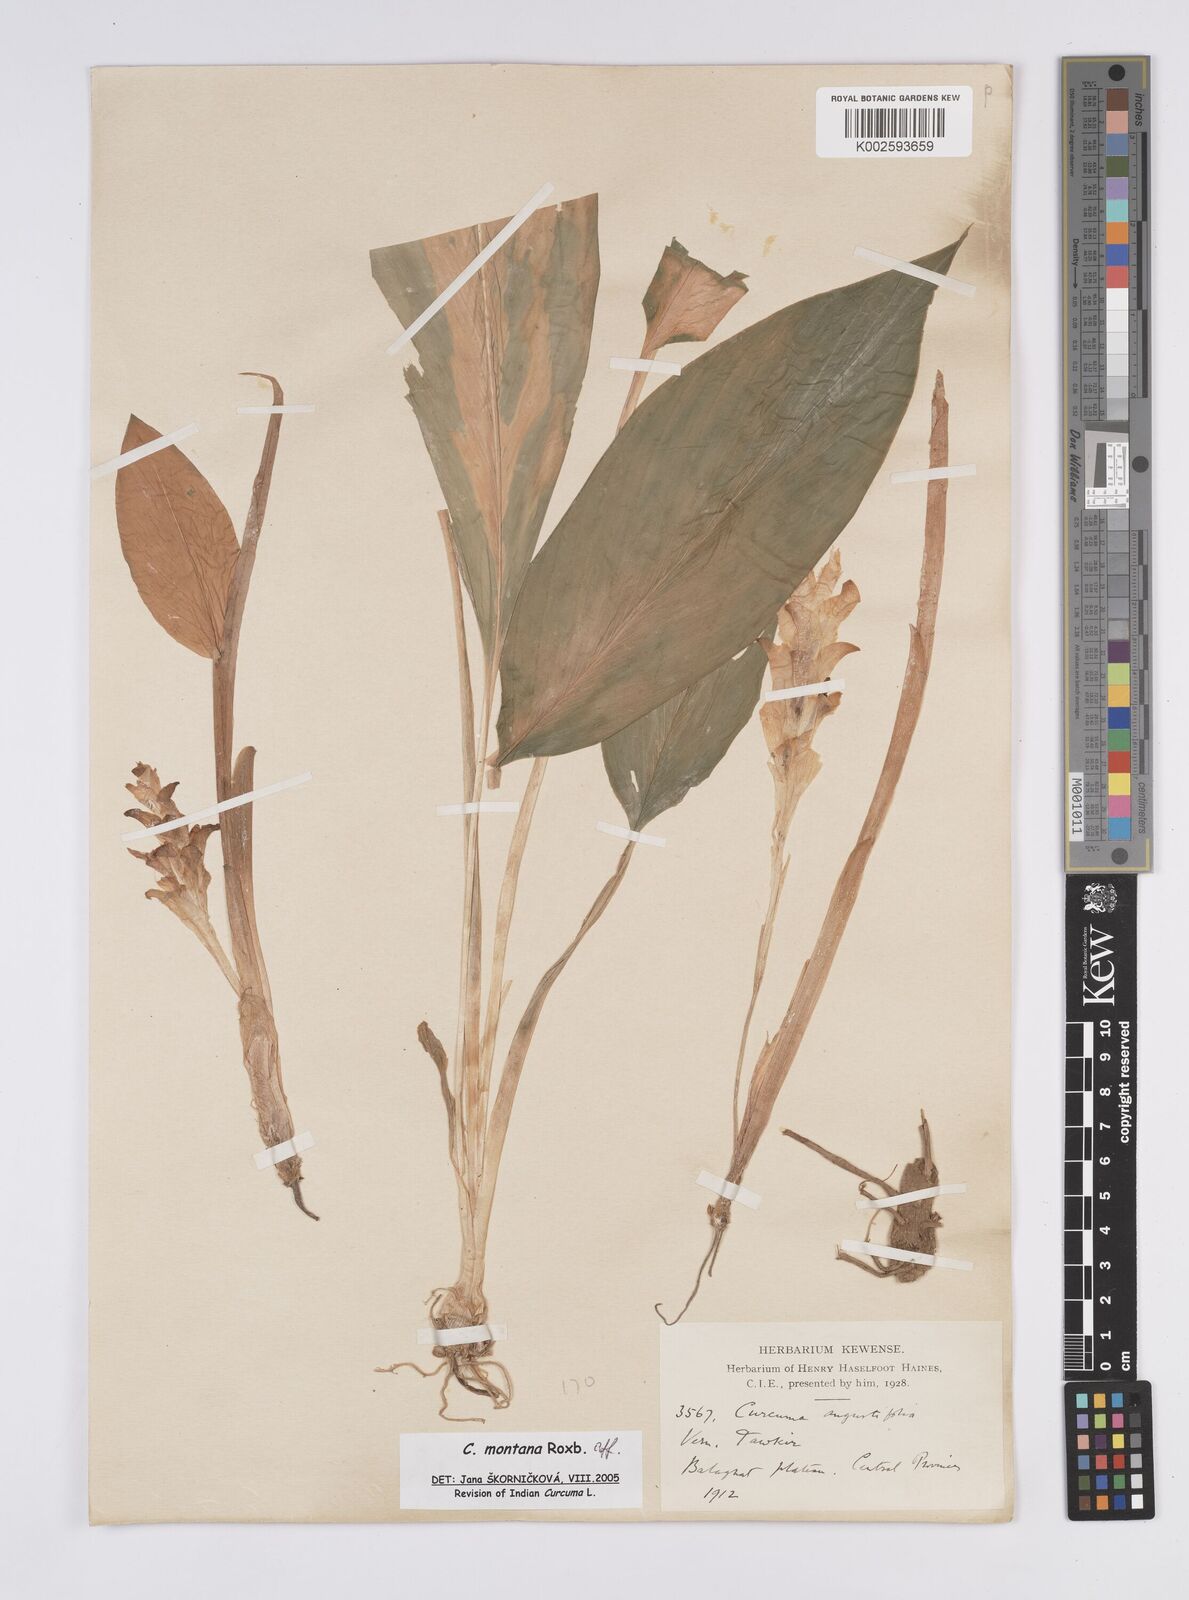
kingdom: Plantae
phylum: Tracheophyta
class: Liliopsida
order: Zingiberales
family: Zingiberaceae
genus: Curcuma
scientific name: Curcuma montana
